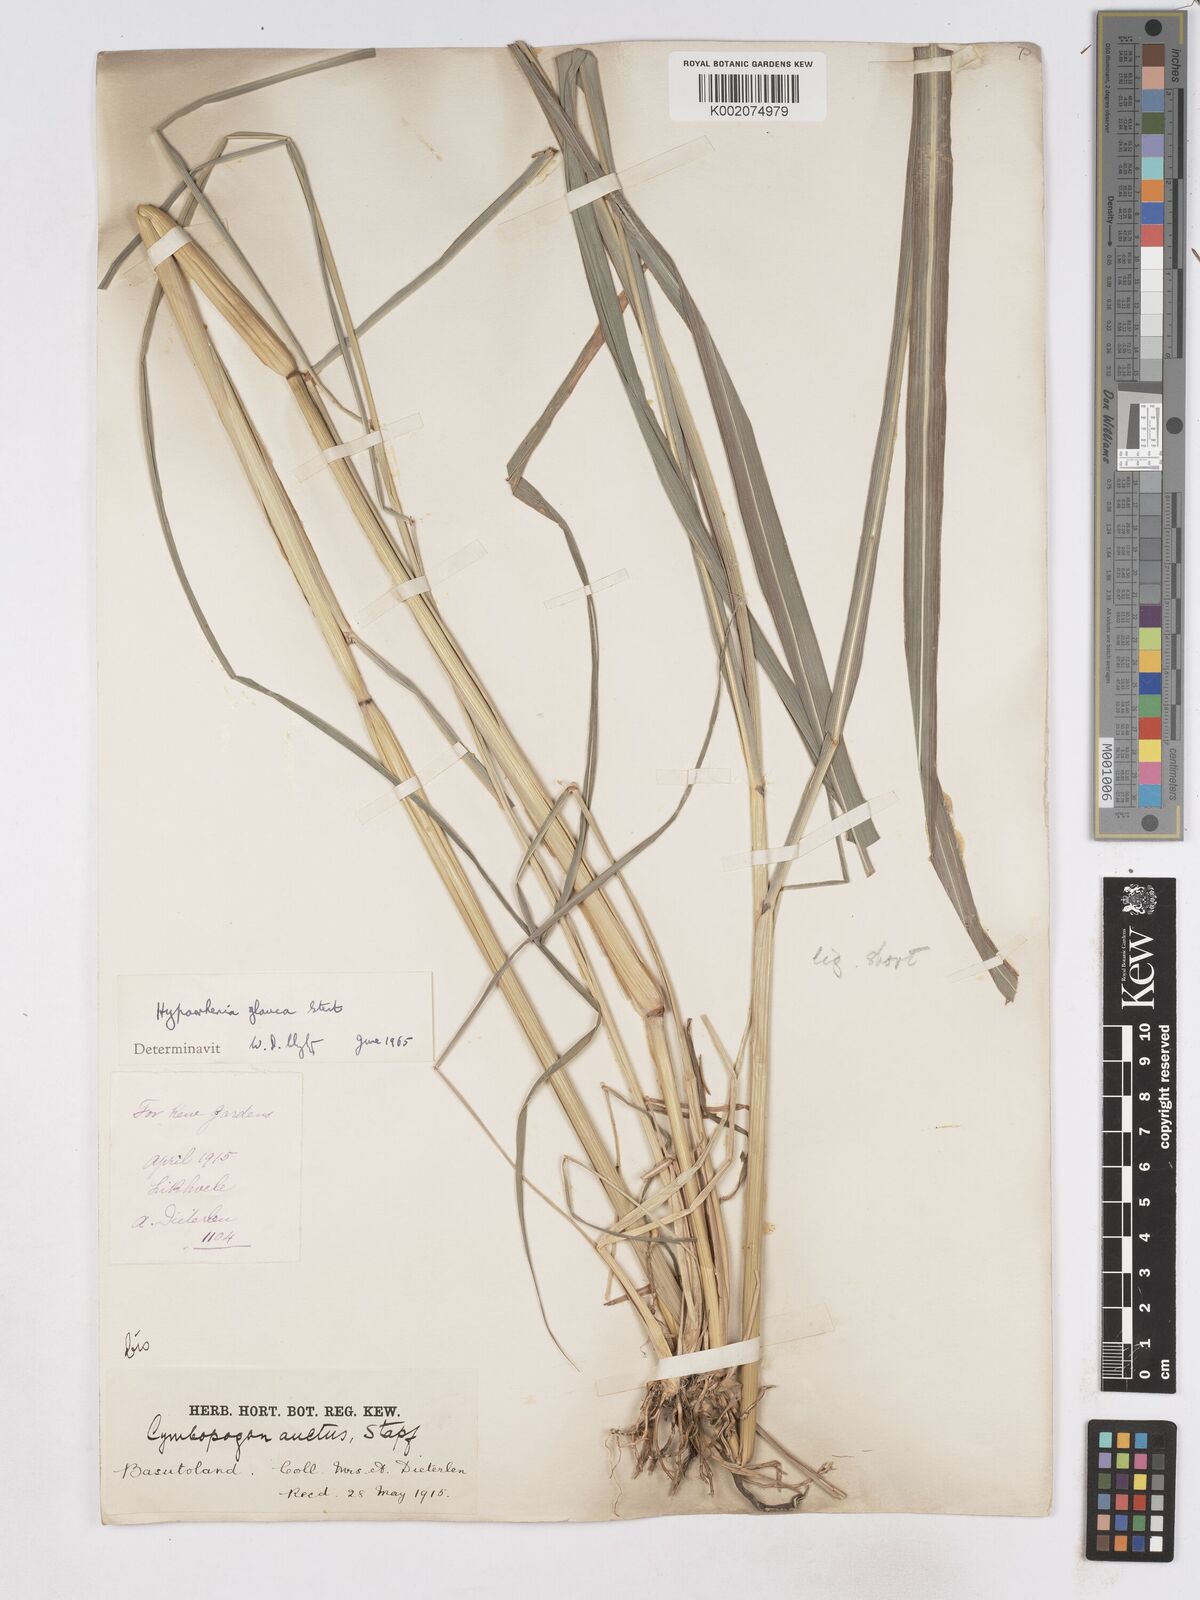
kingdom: Plantae
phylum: Tracheophyta
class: Liliopsida
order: Poales
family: Poaceae
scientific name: Poaceae
